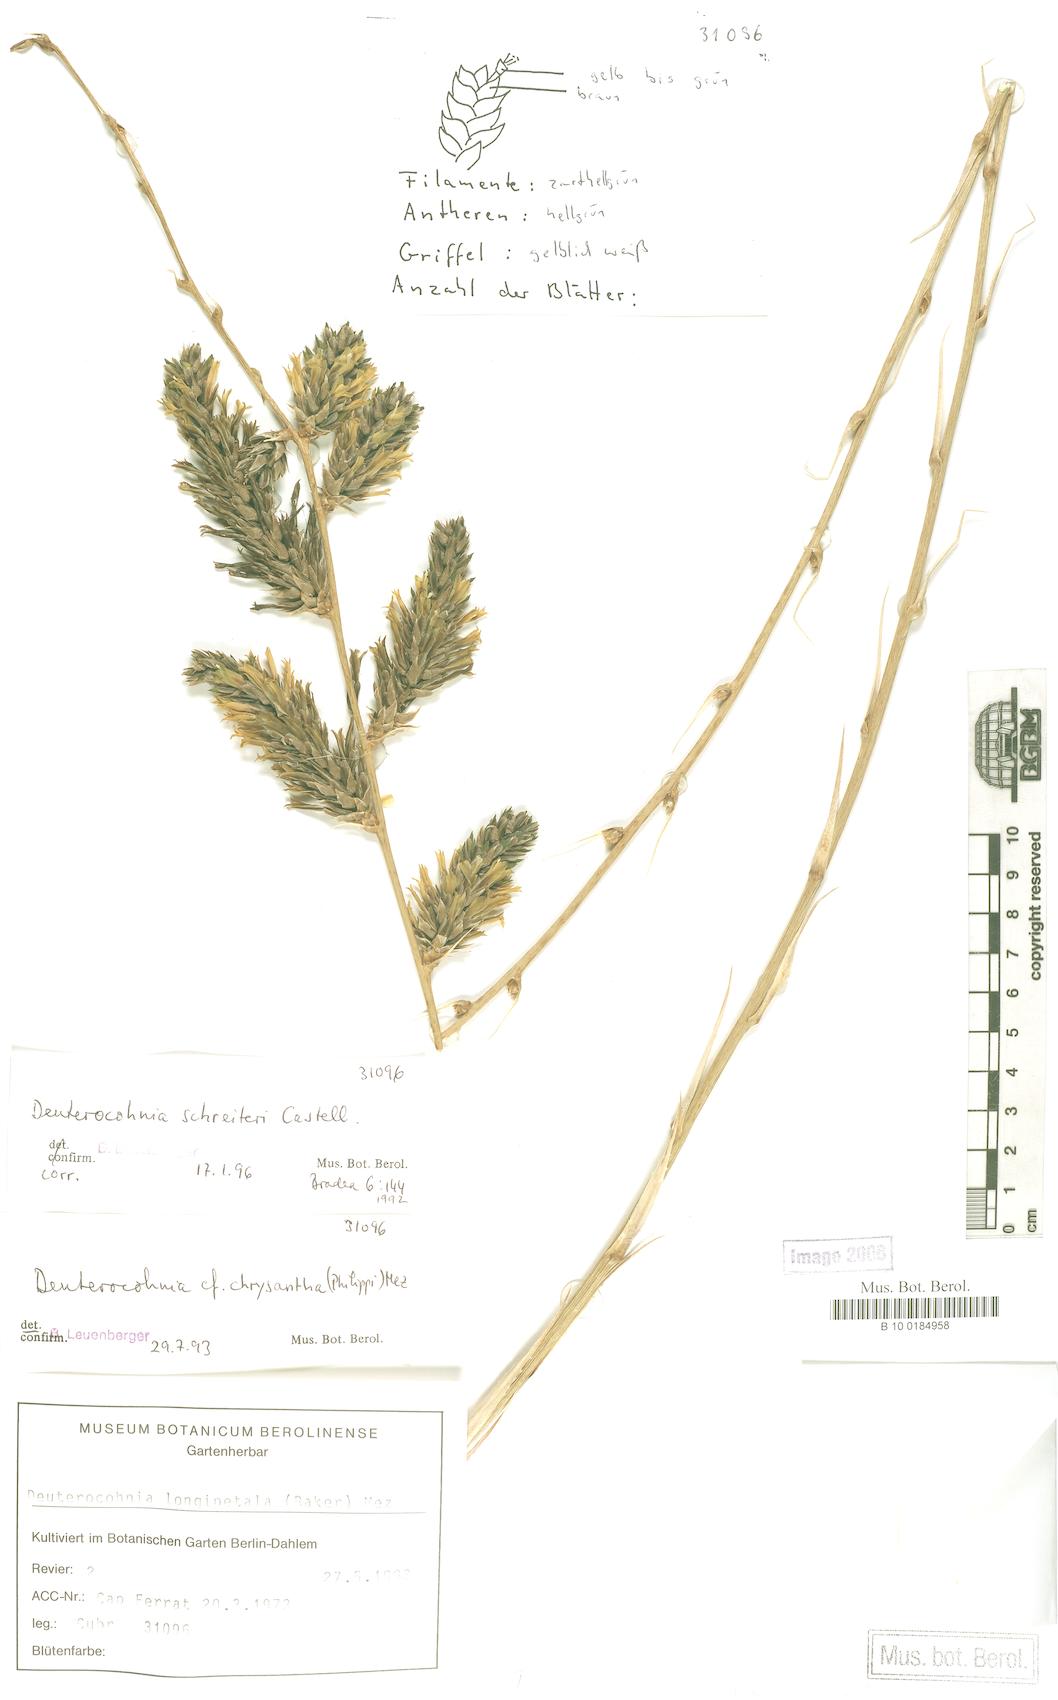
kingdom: Plantae
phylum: Tracheophyta
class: Liliopsida
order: Poales
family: Bromeliaceae
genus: Deuterocohnia
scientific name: Deuterocohnia schreiteri
